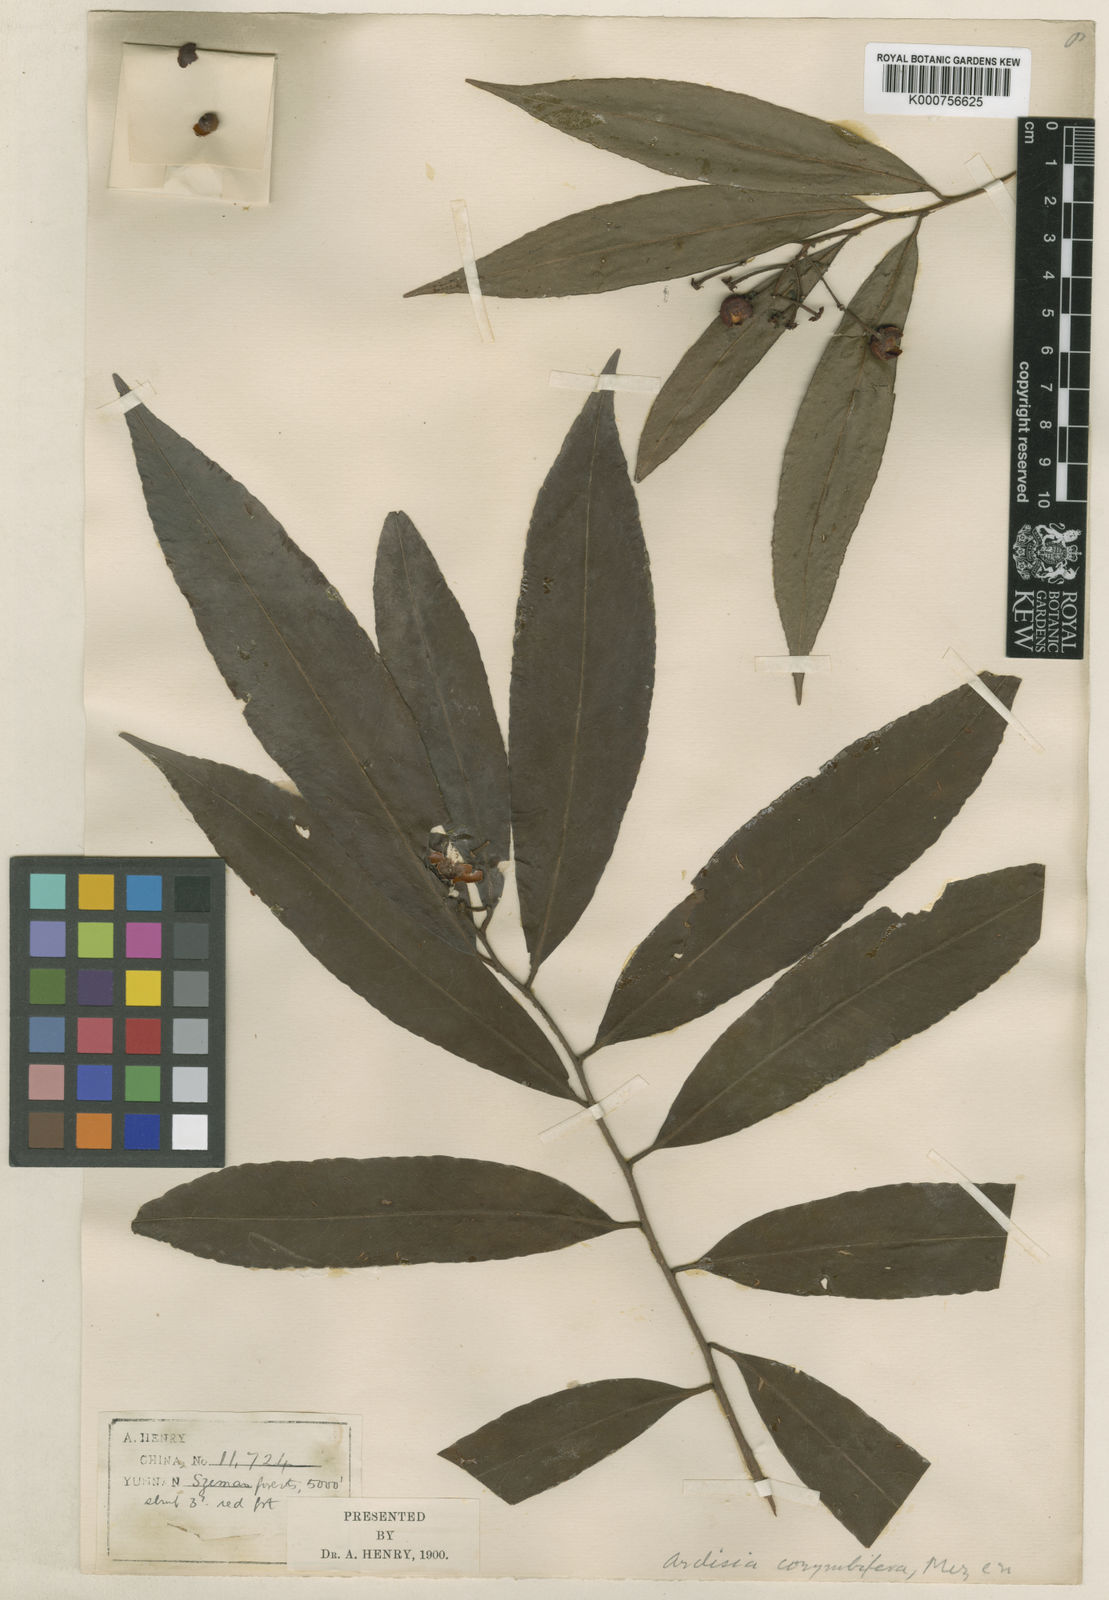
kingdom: Plantae
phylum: Tracheophyta
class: Magnoliopsida
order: Ericales
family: Primulaceae
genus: Ardisia
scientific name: Ardisia corymbifera
